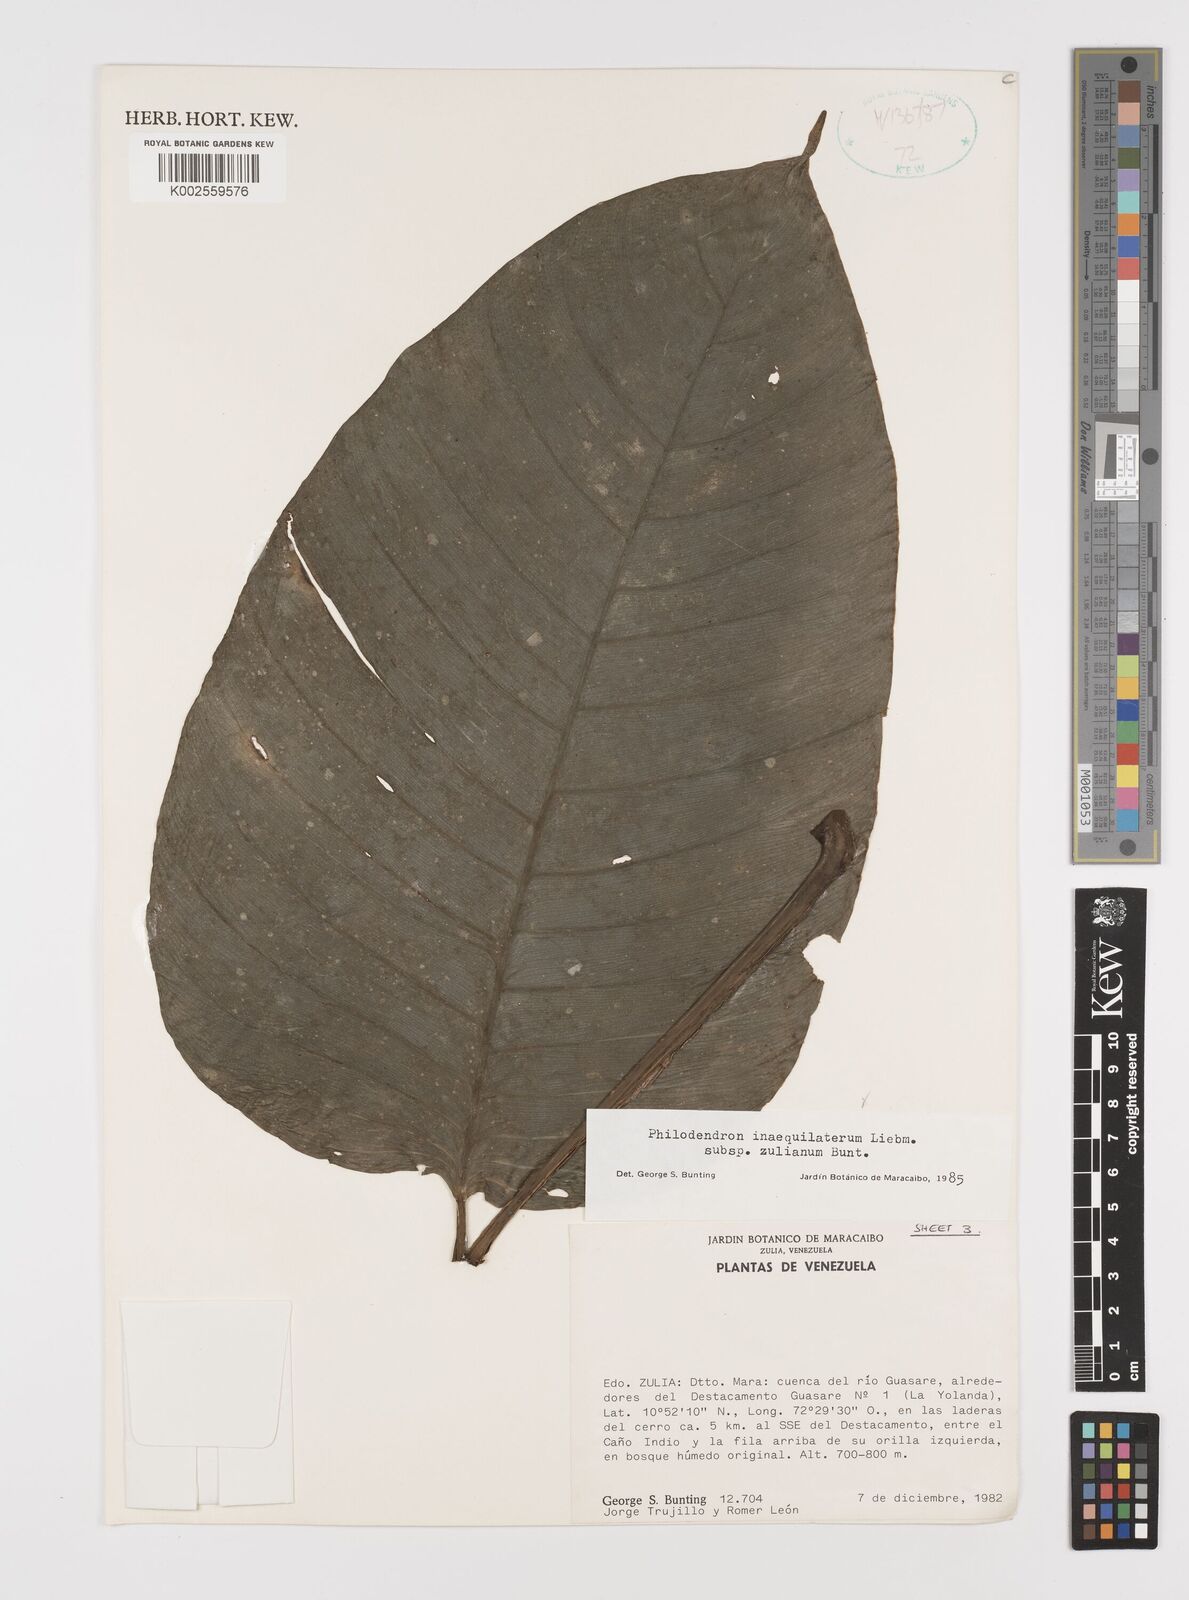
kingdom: Plantae
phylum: Tracheophyta
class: Liliopsida
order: Alismatales
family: Araceae
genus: Philodendron
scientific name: Philodendron inaequilaterum
